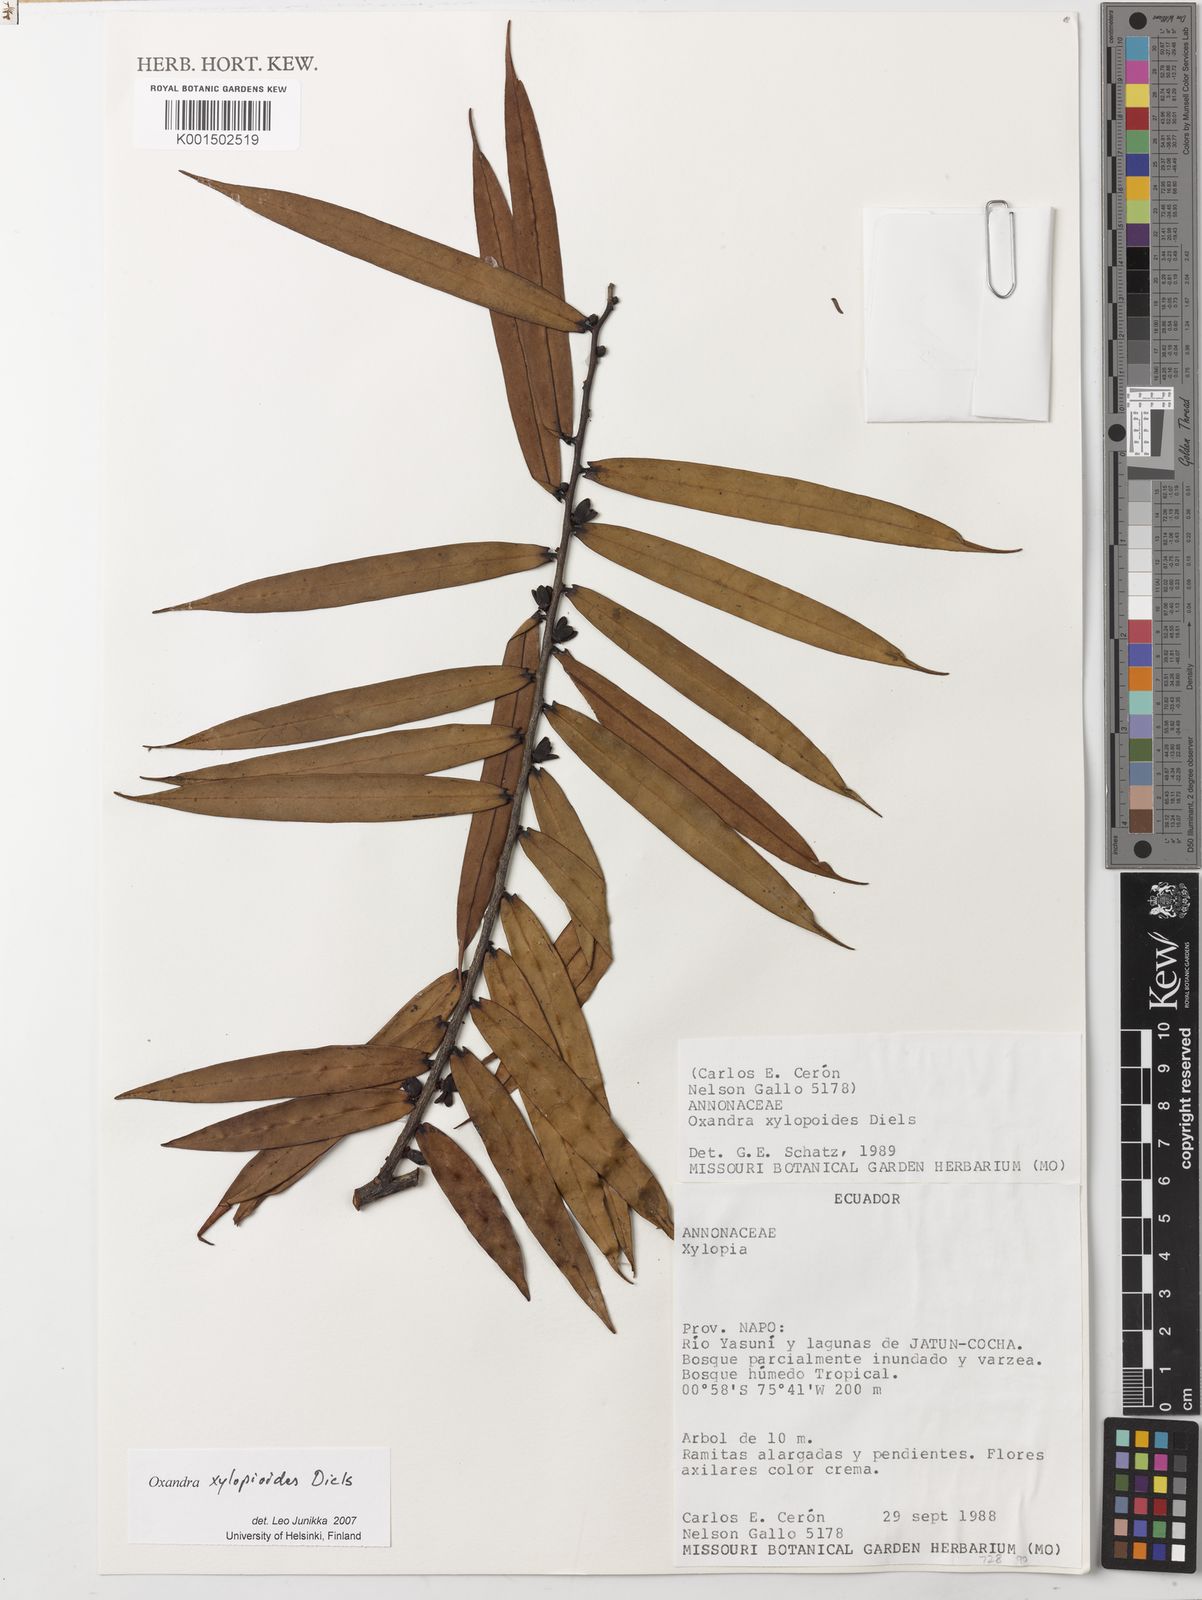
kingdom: Plantae
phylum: Tracheophyta
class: Magnoliopsida
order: Magnoliales
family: Annonaceae
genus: Oxandra
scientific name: Oxandra xylopioides
